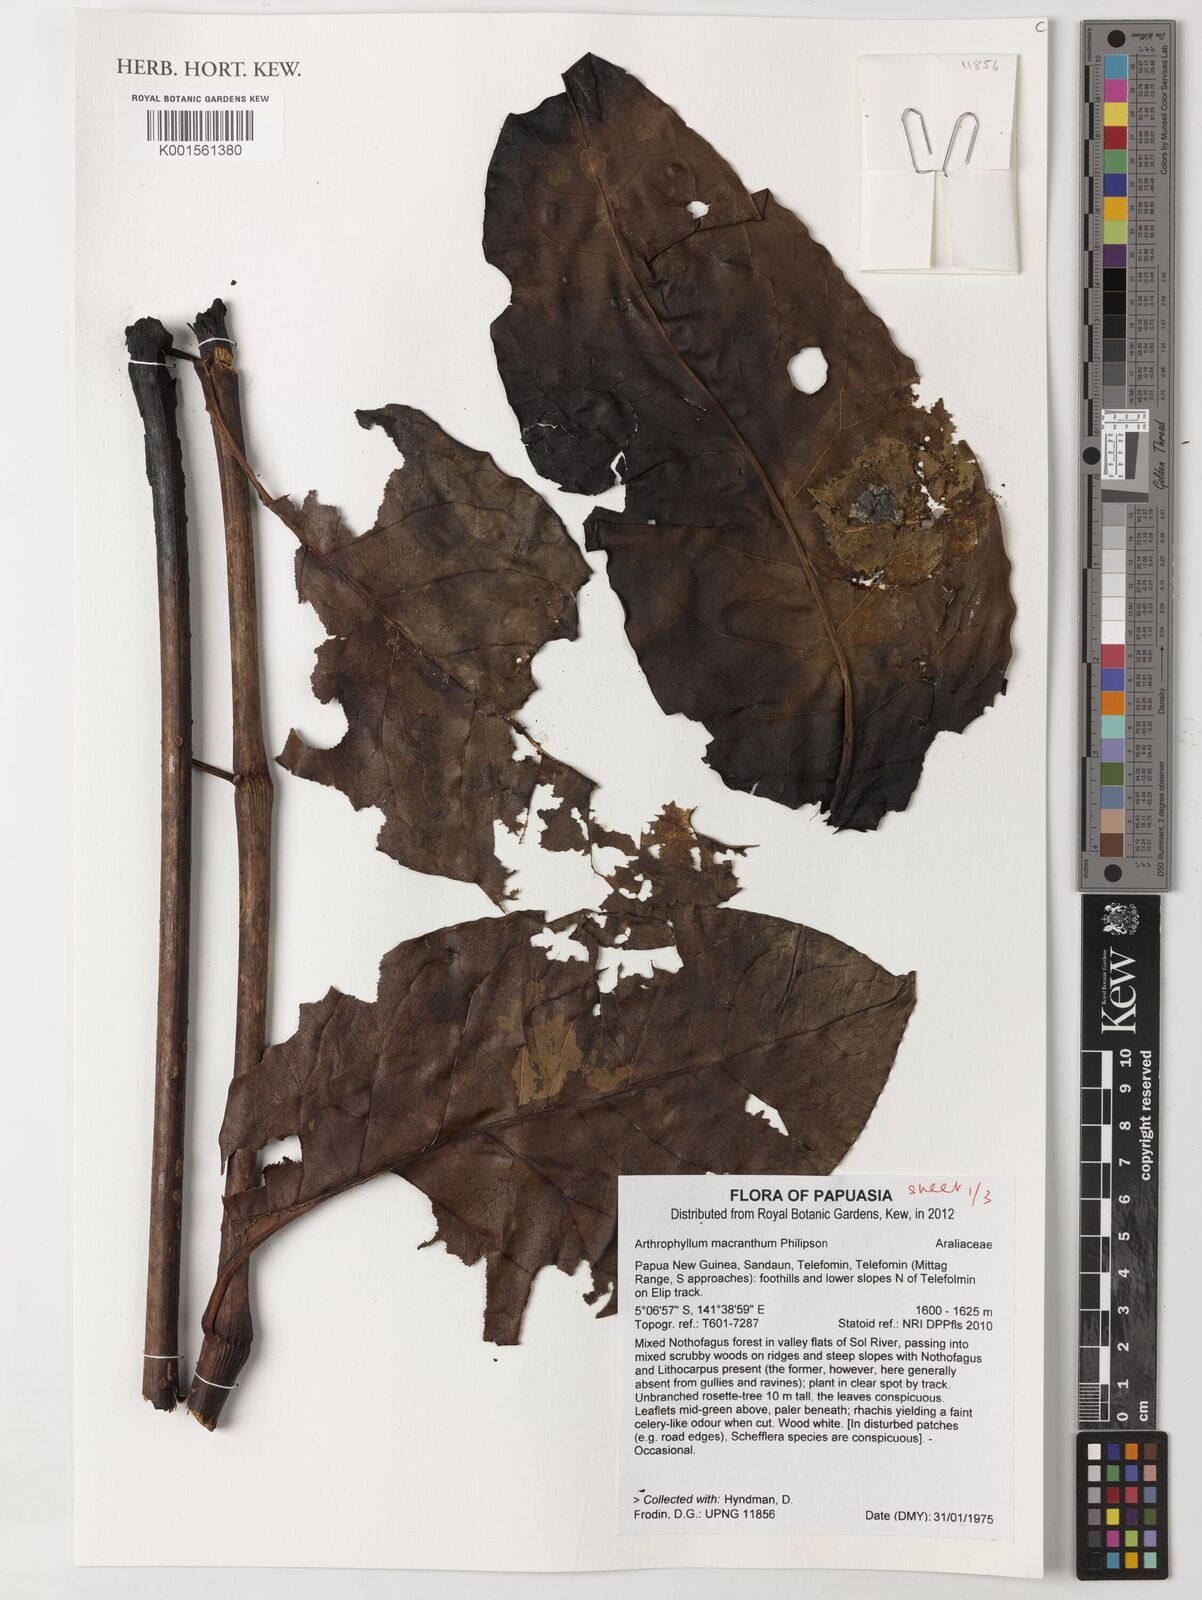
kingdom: Plantae
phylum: Tracheophyta
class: Magnoliopsida
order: Apiales
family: Araliaceae
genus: Polyscias
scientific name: Polyscias macranthum
